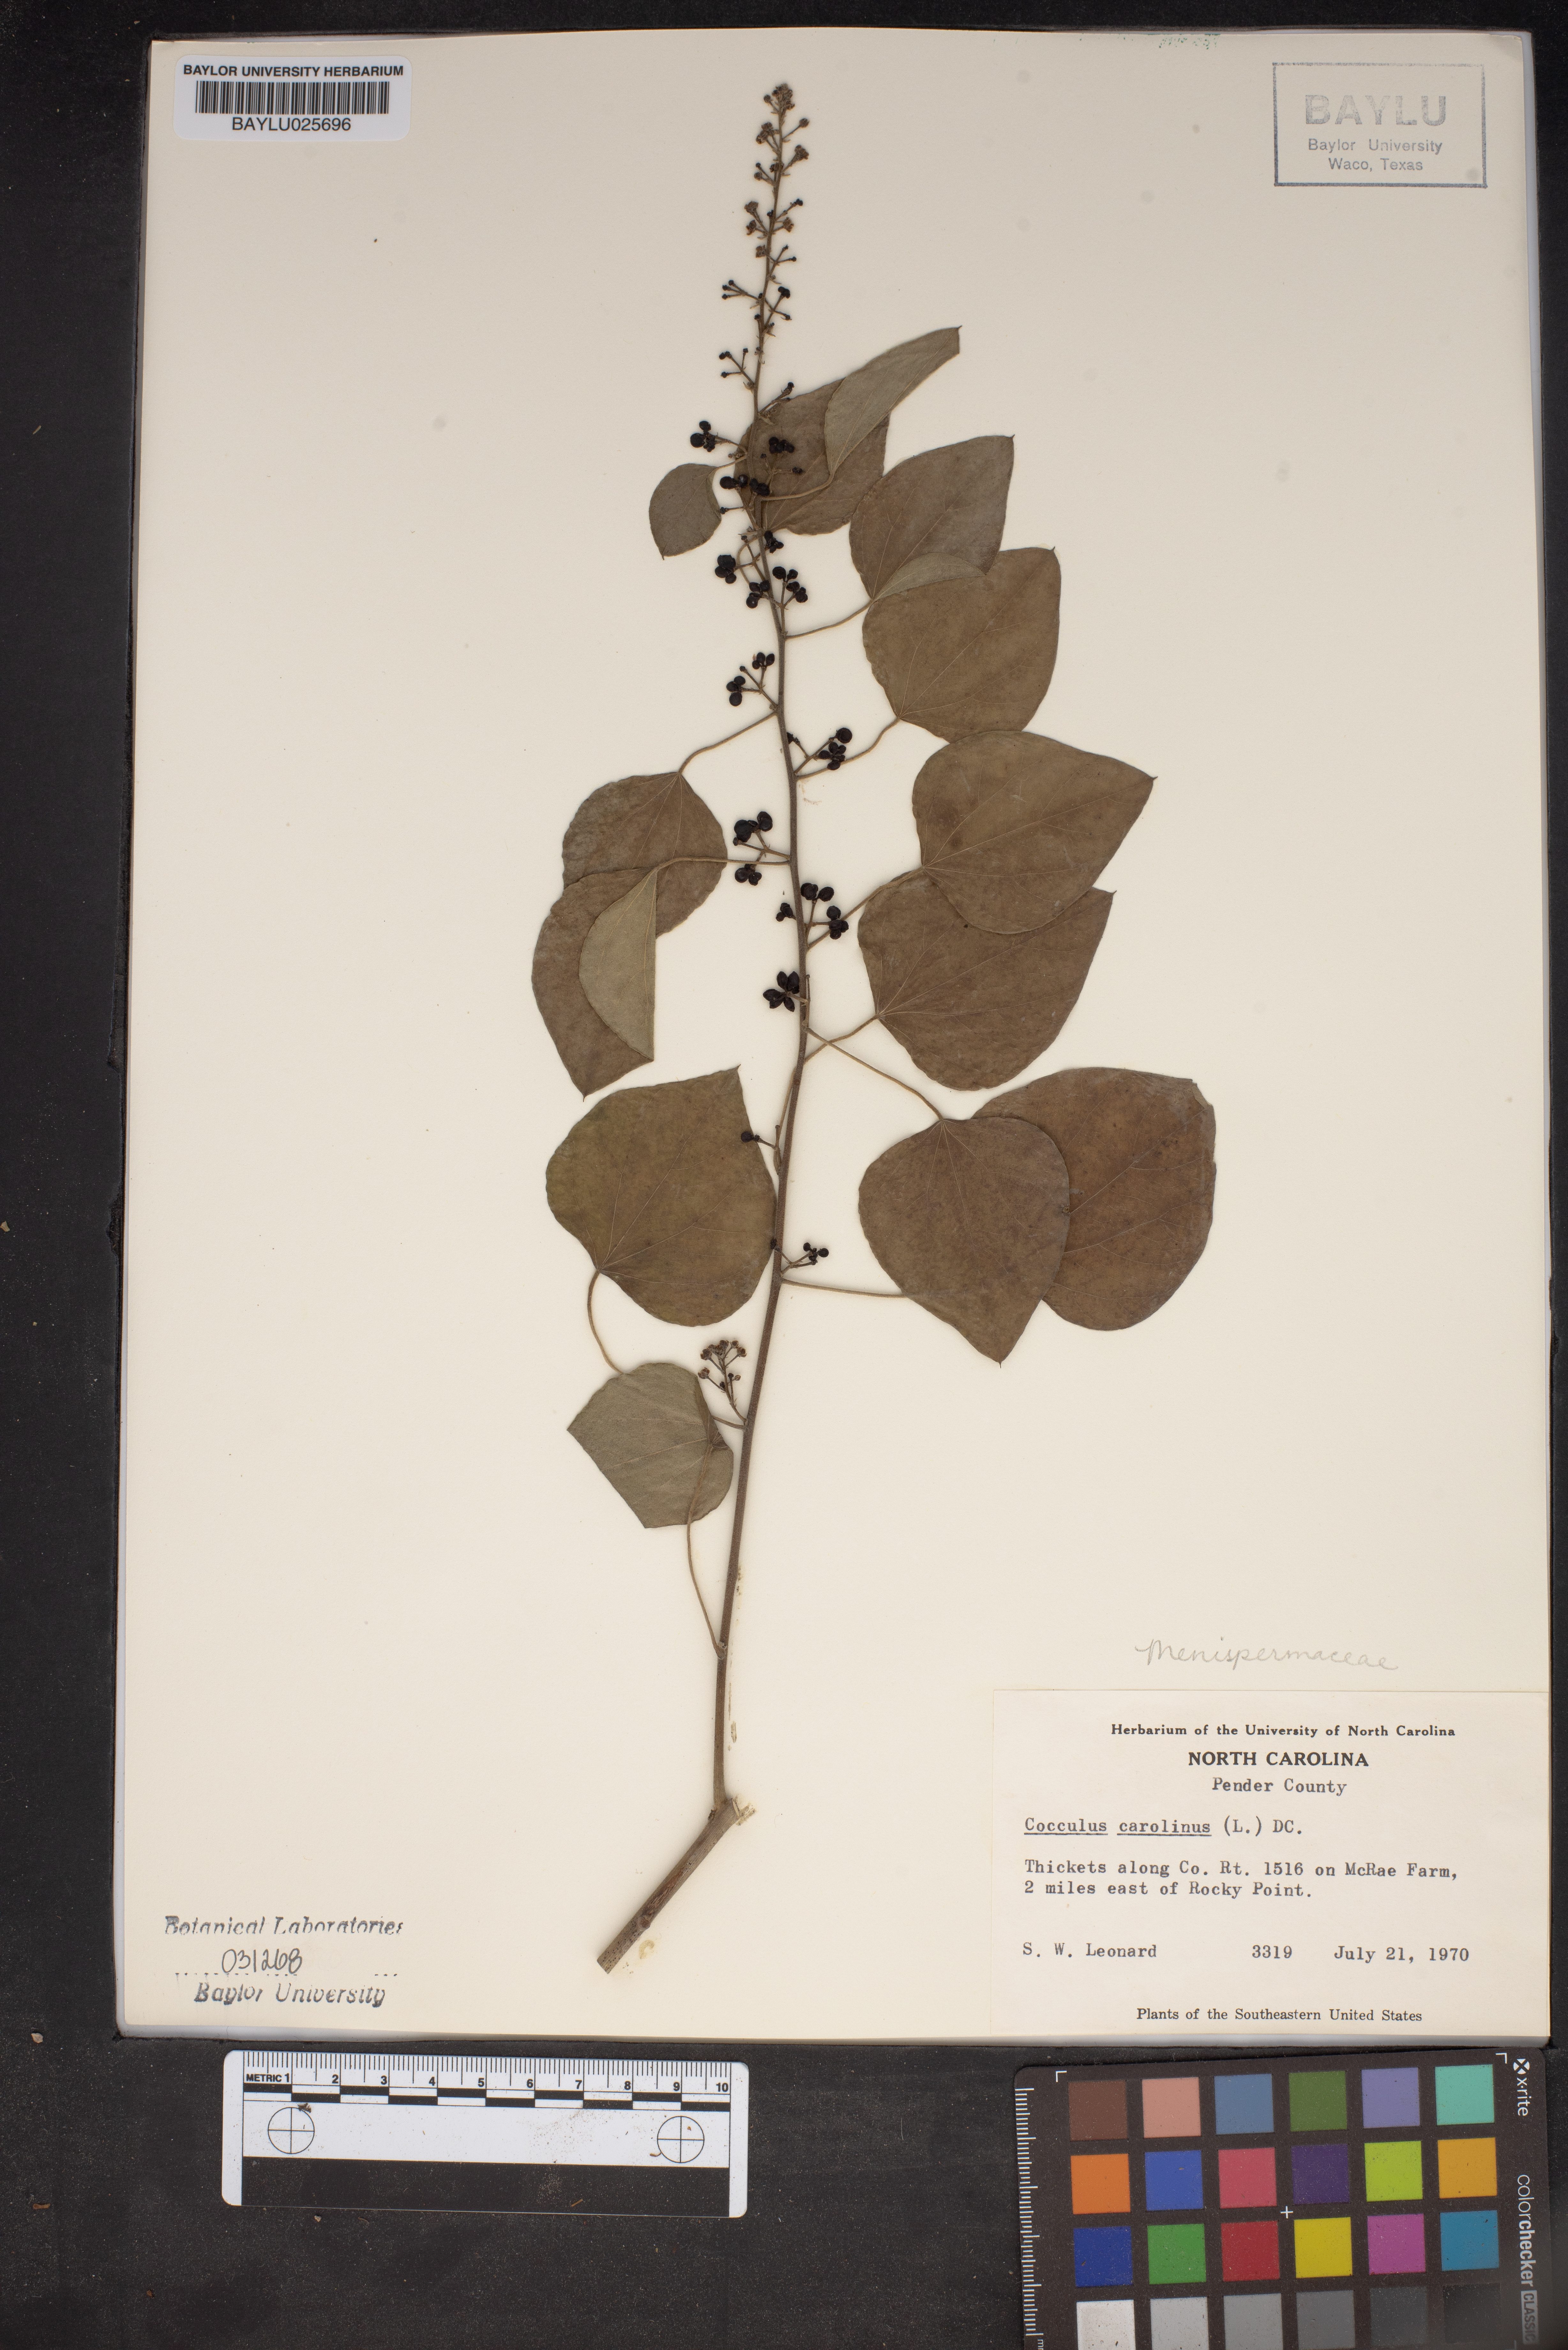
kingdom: Plantae
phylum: Tracheophyta
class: Magnoliopsida
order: Ranunculales
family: Menispermaceae
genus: Cocculus
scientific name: Cocculus carolinus
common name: Carolina moonseed
